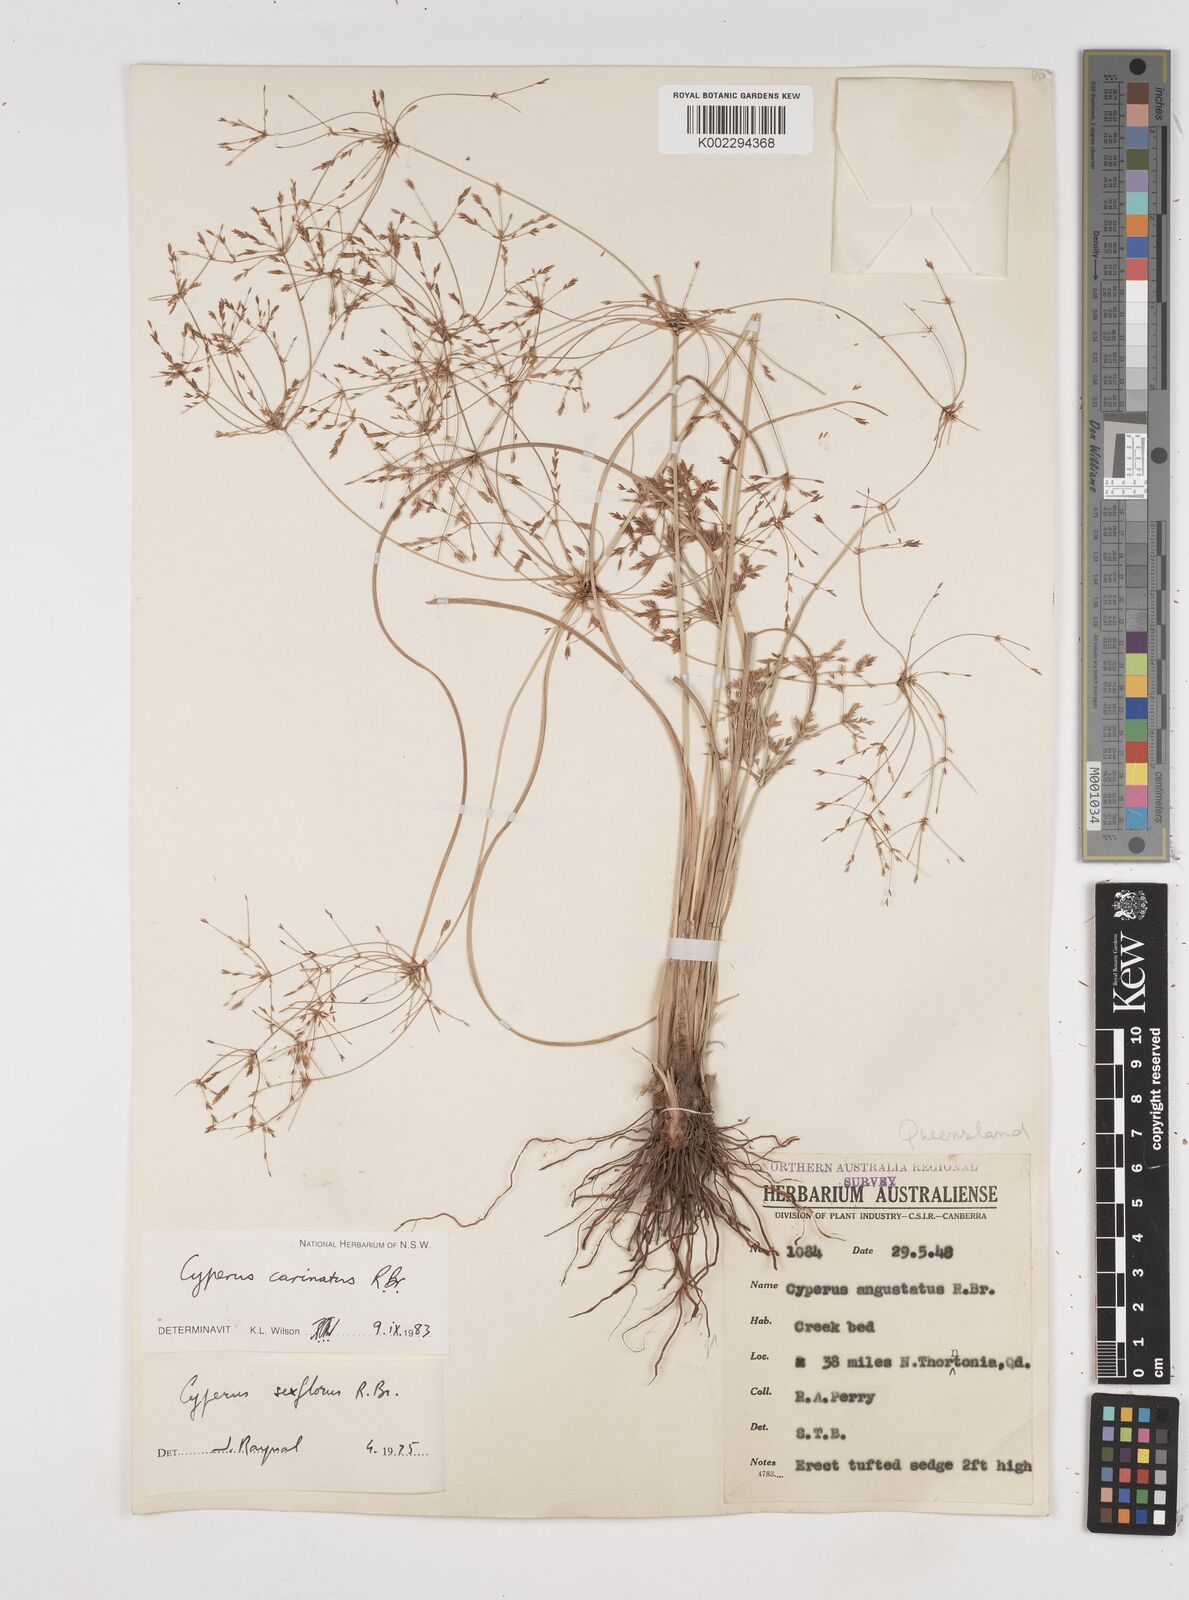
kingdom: Plantae
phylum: Tracheophyta
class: Liliopsida
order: Poales
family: Cyperaceae
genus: Cyperus
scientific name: Cyperus carinatus
